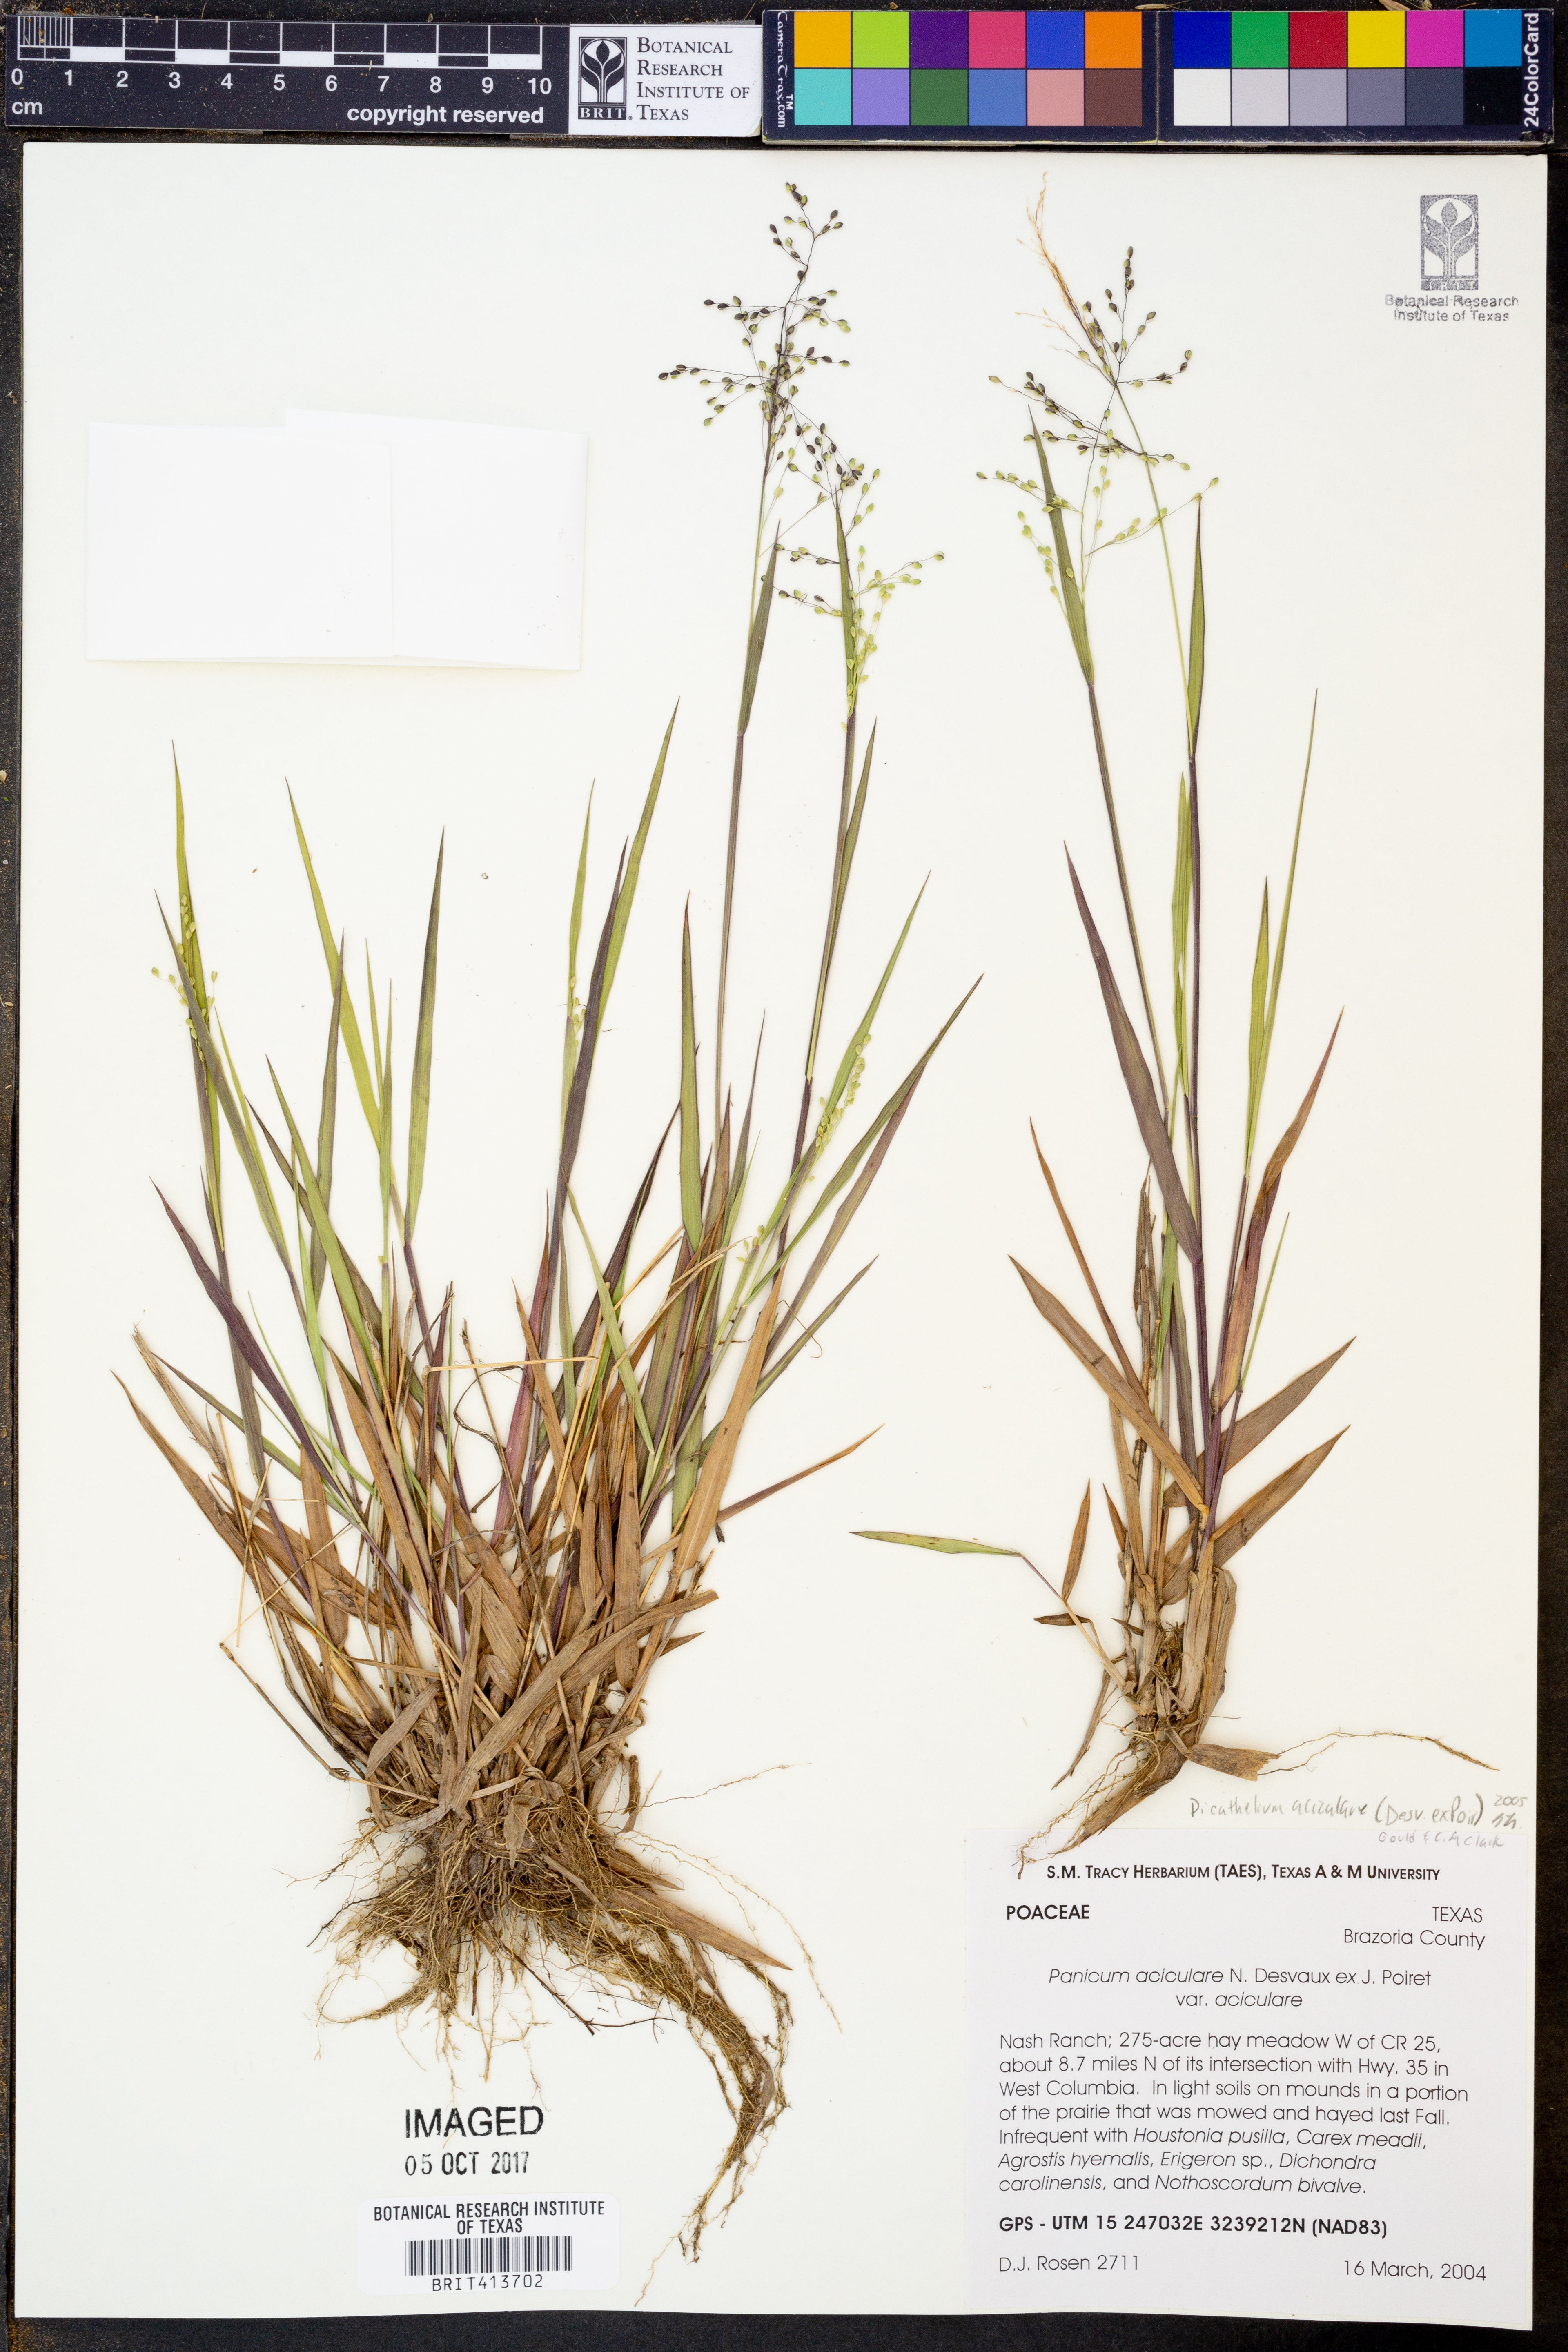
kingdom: Plantae
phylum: Tracheophyta
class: Liliopsida
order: Poales
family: Poaceae
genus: Dichanthelium
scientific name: Dichanthelium aciculare
